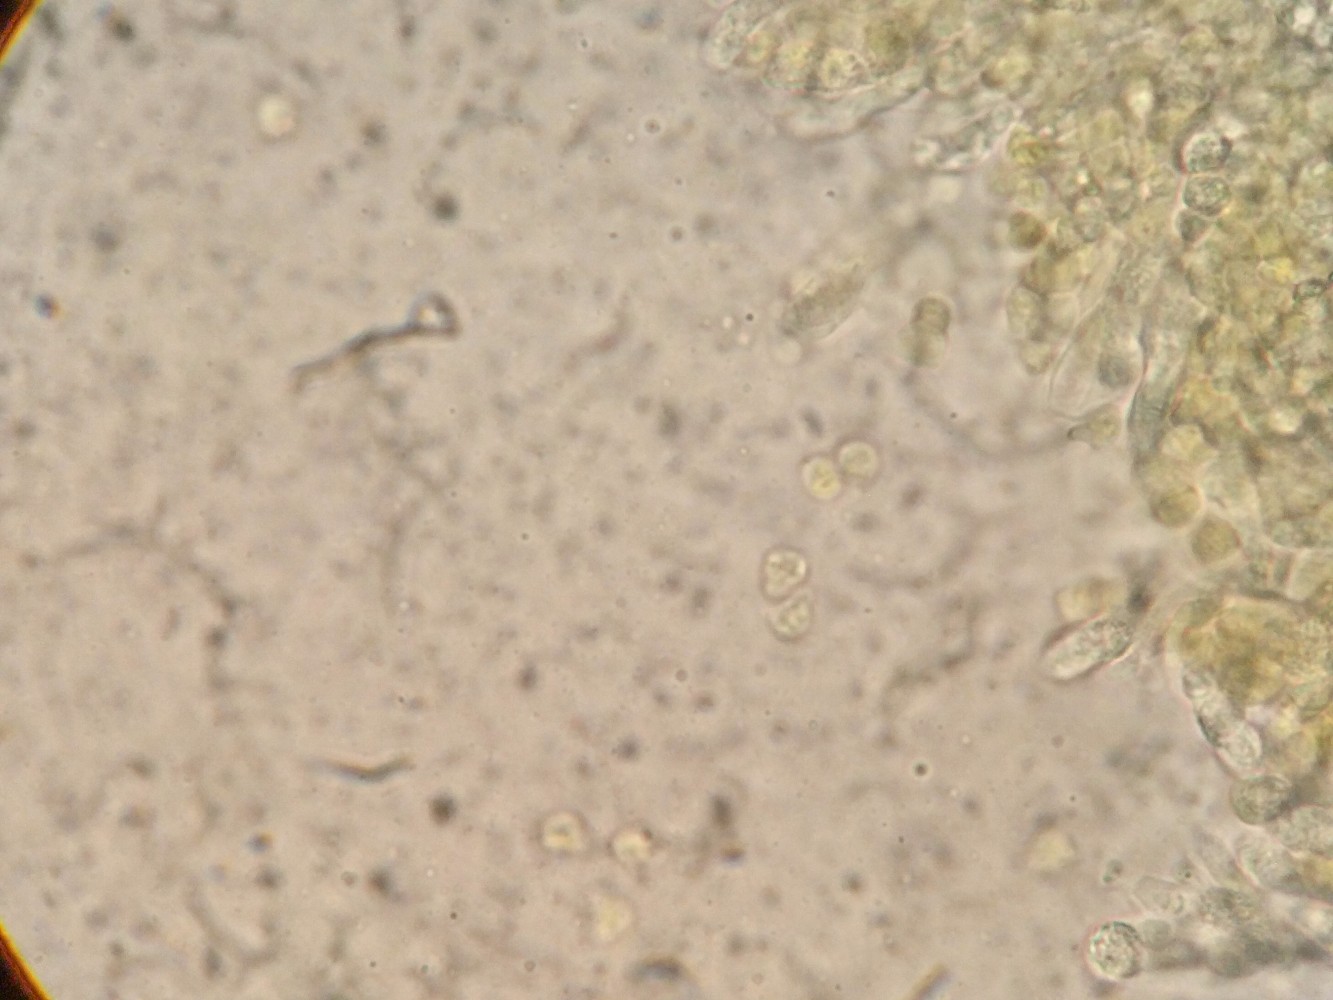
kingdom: Fungi
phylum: Basidiomycota
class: Agaricomycetes
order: Agaricales
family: Clavariaceae
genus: Clavulinopsis
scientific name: Clavulinopsis helvola
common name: orangegul køllesvamp
